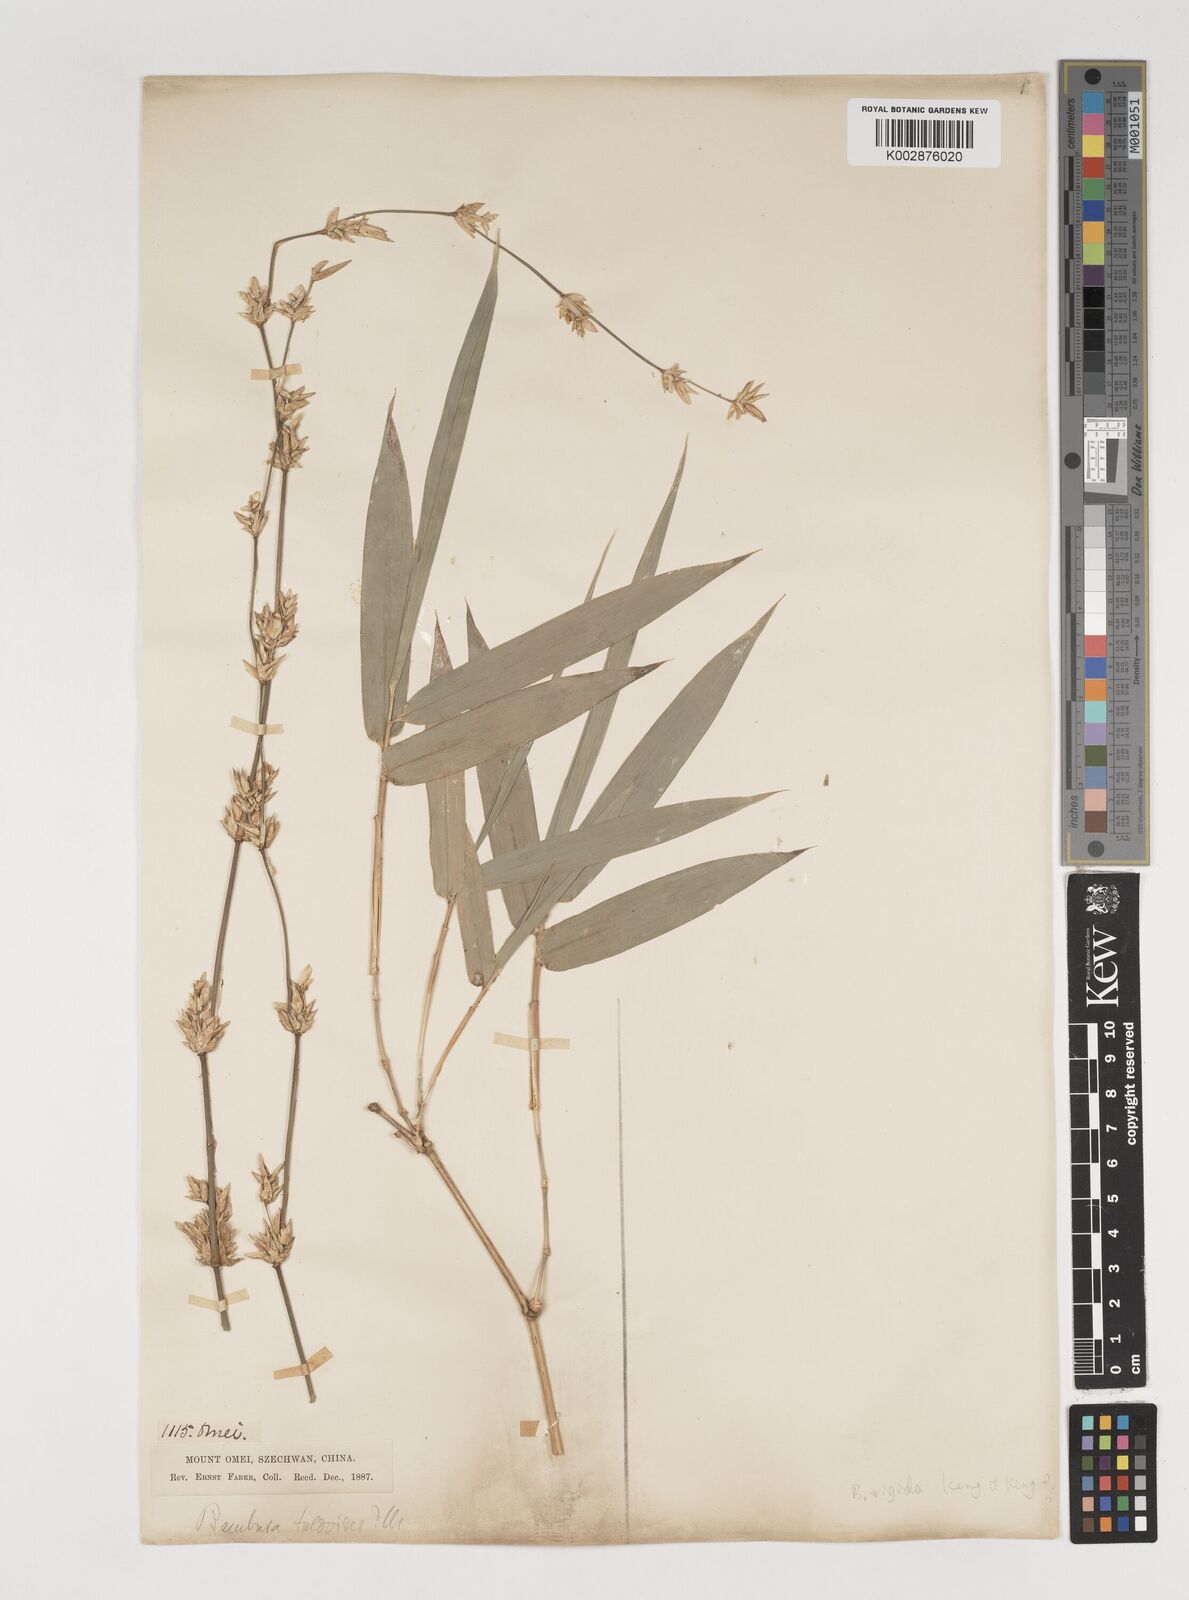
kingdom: Plantae
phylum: Tracheophyta
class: Liliopsida
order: Poales
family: Poaceae
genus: Bambusa
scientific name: Bambusa tulda
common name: Bengal bamboo
